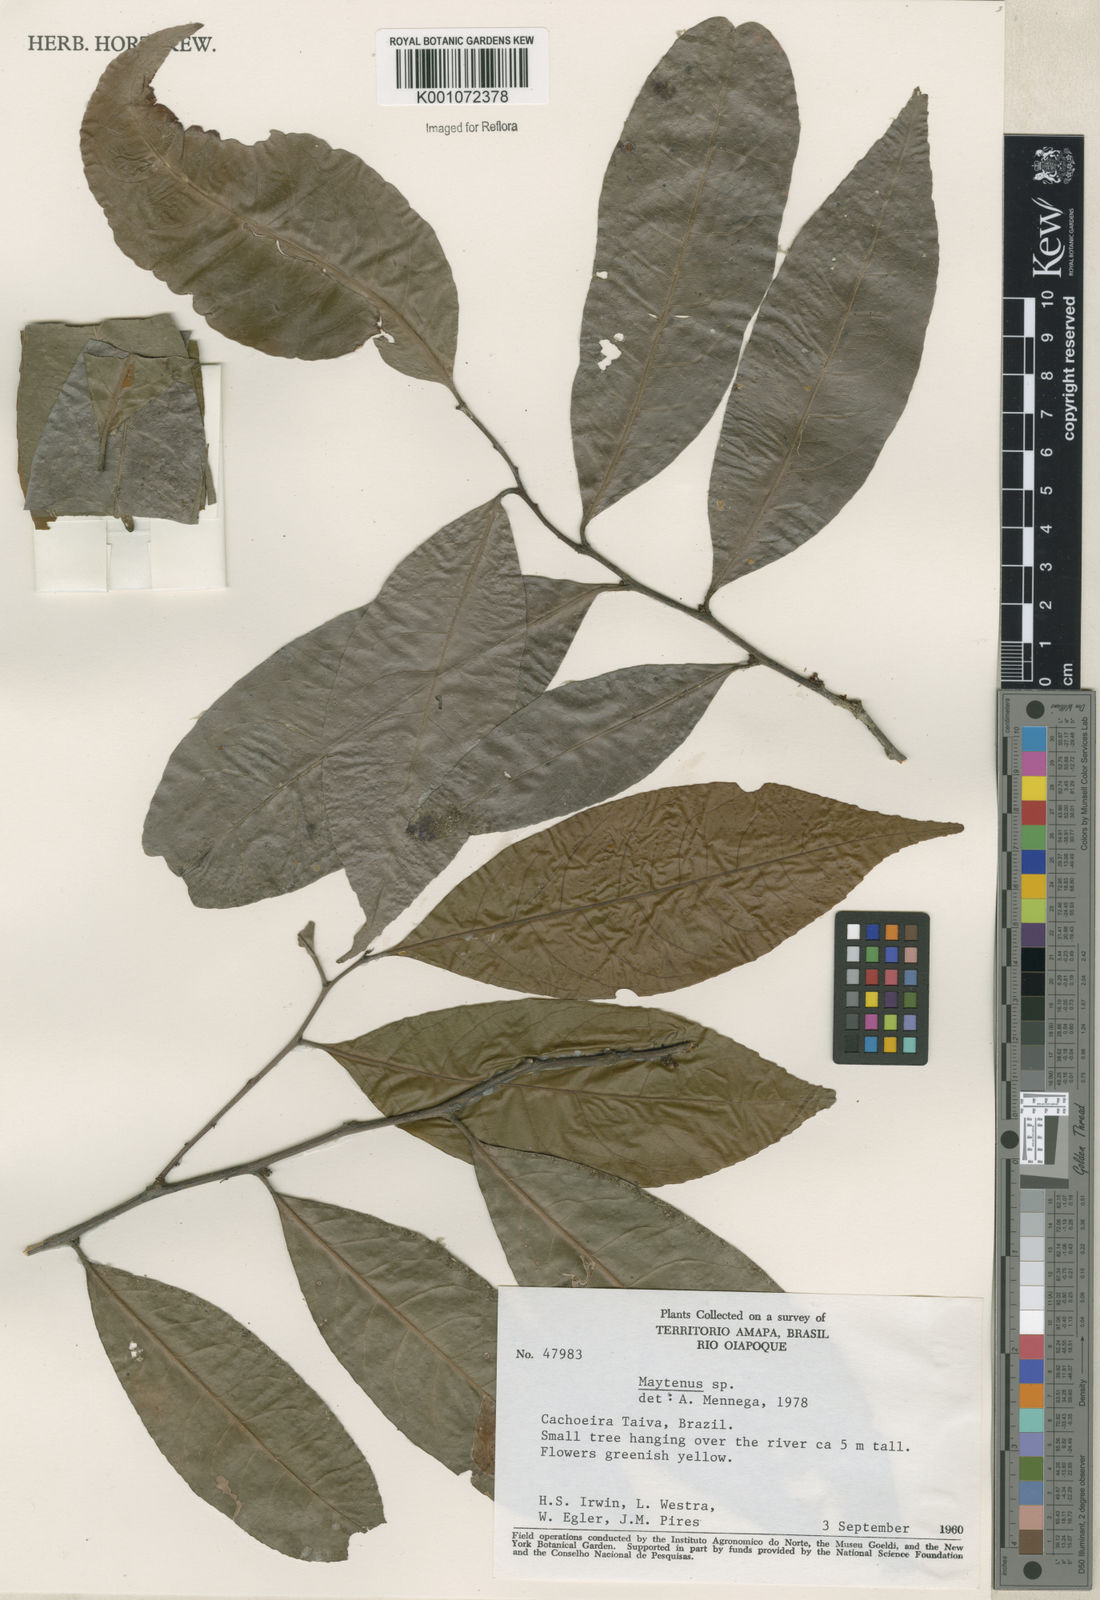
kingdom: Plantae
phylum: Tracheophyta
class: Magnoliopsida
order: Celastrales
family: Celastraceae
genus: Maytenus
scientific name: Maytenus
